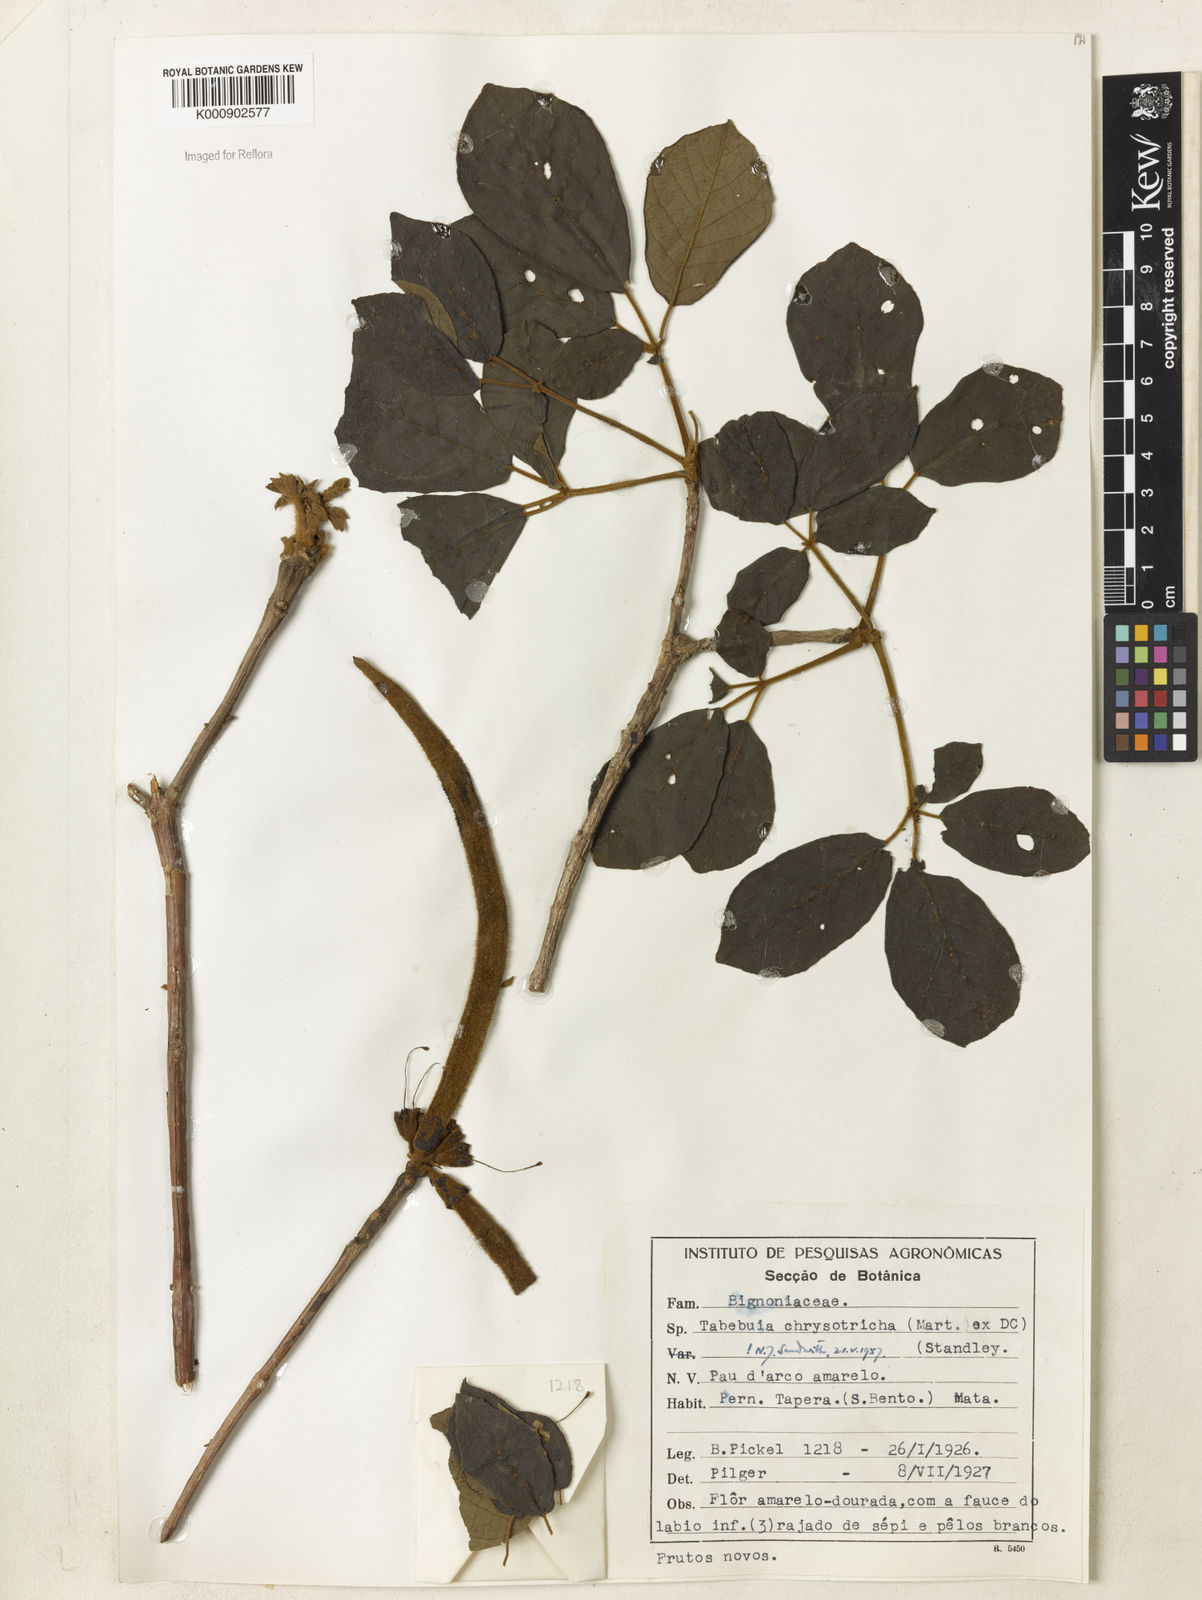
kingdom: Plantae
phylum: Tracheophyta
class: Magnoliopsida
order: Lamiales
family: Bignoniaceae
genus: Handroanthus
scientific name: Handroanthus chrysotrichus
